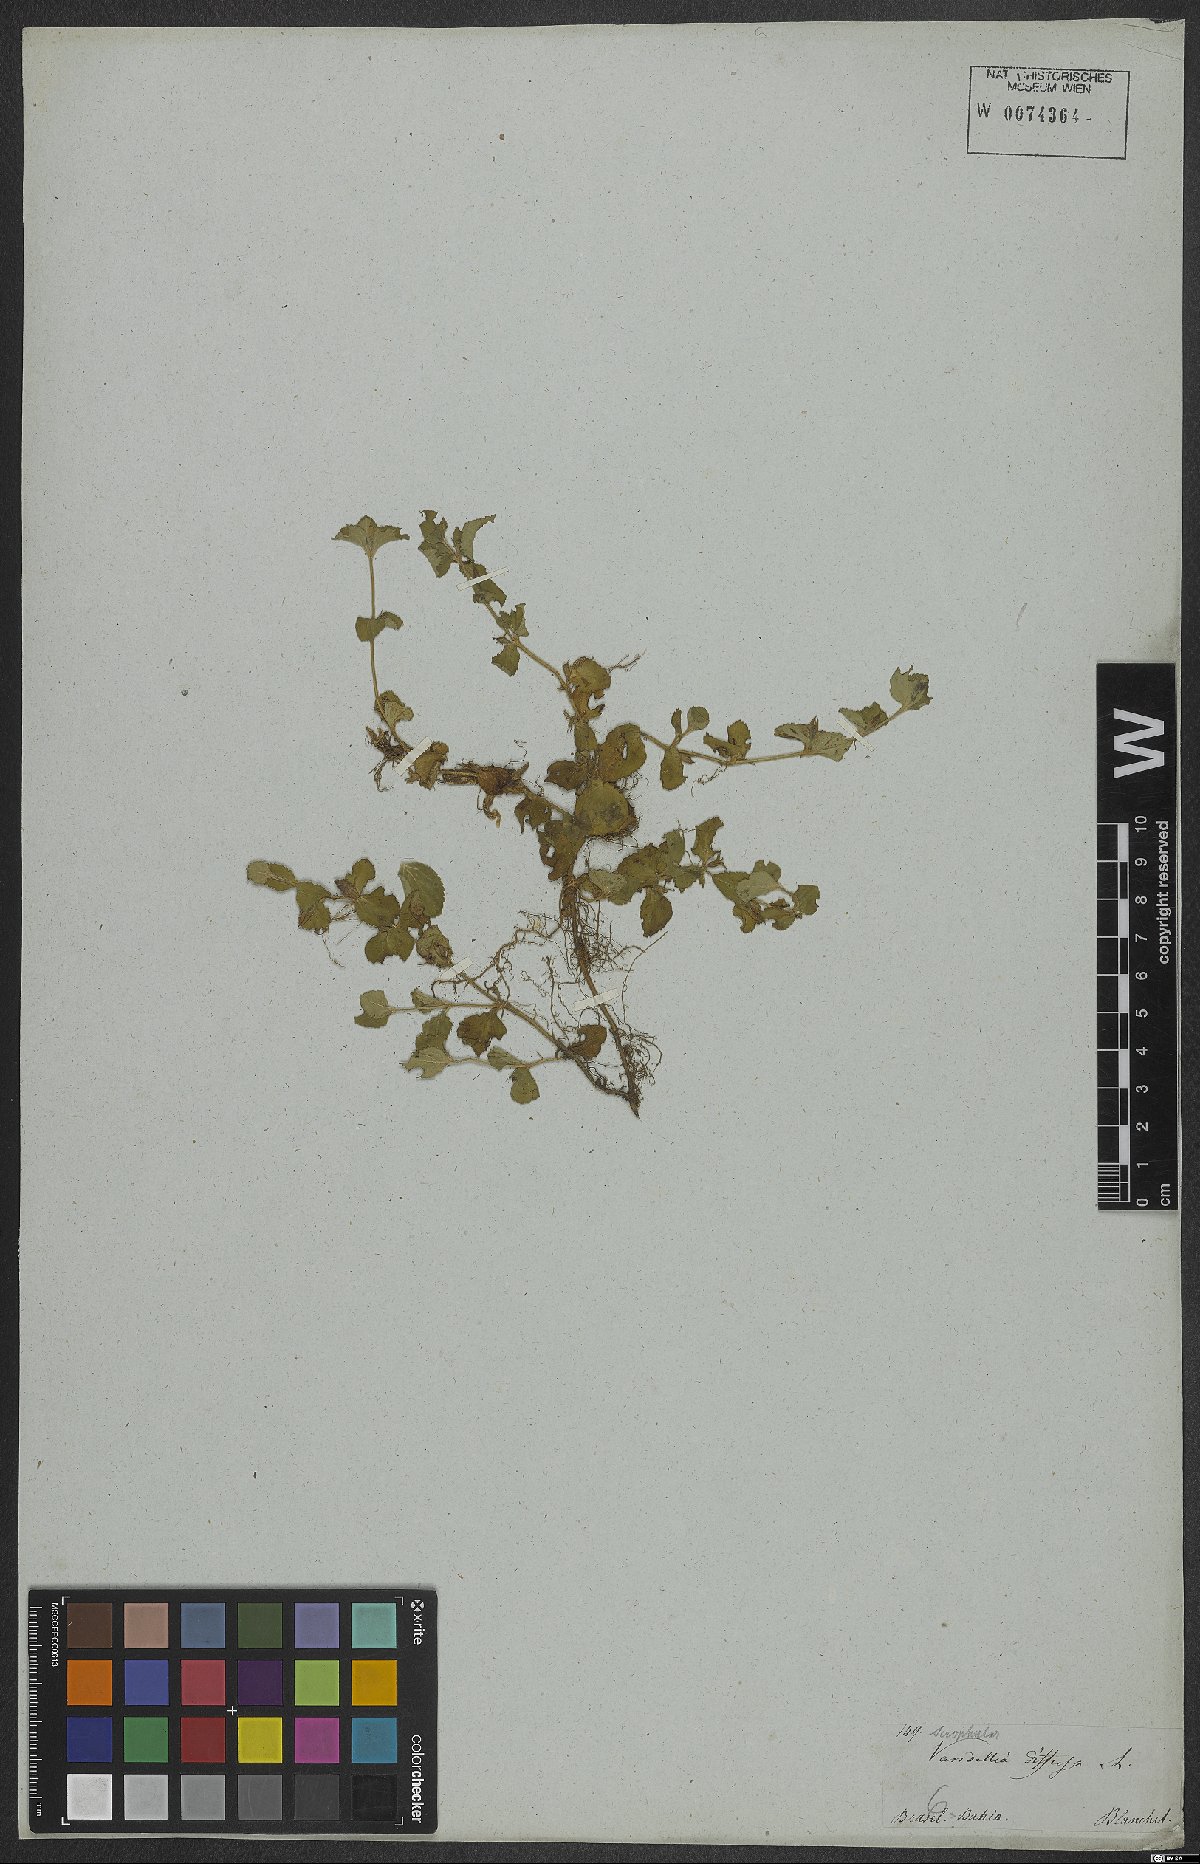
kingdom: Plantae
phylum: Tracheophyta
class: Magnoliopsida
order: Lamiales
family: Linderniaceae
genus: Vandellia
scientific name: Vandellia diffusa
